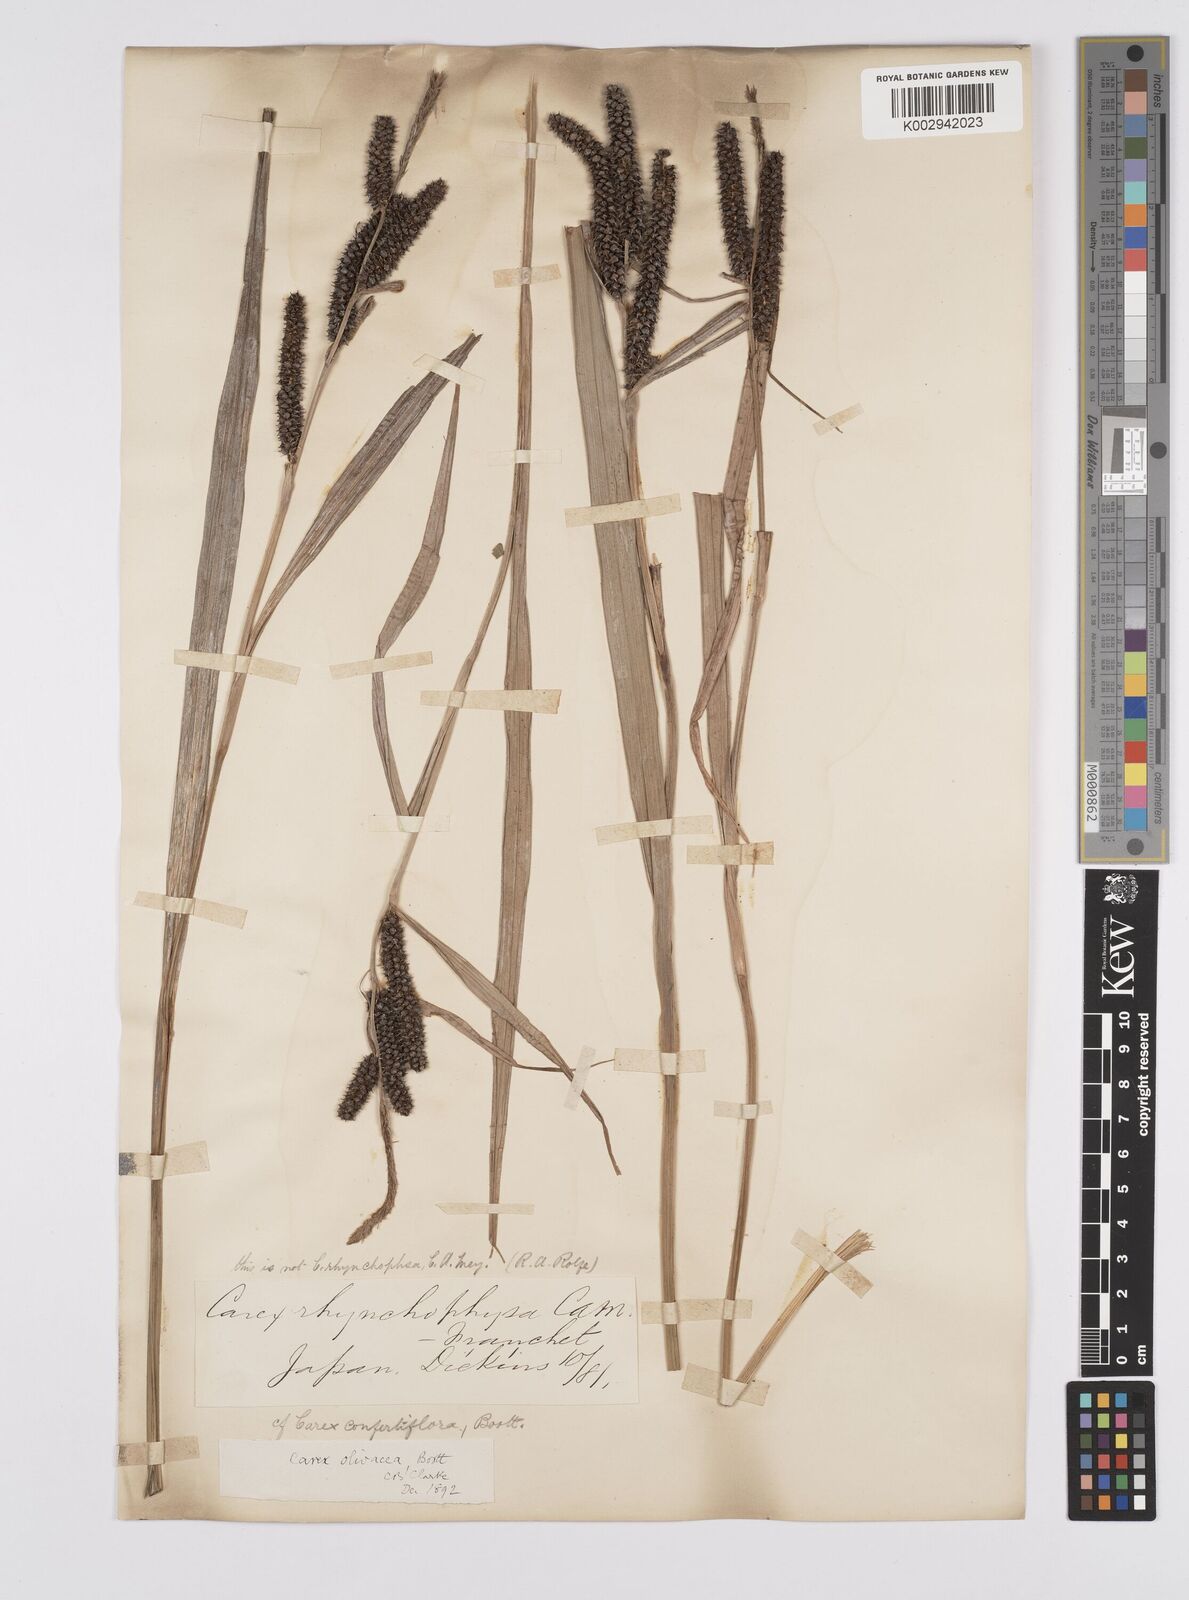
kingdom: Plantae
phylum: Tracheophyta
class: Liliopsida
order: Poales
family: Cyperaceae
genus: Carex
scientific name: Carex olivacea
